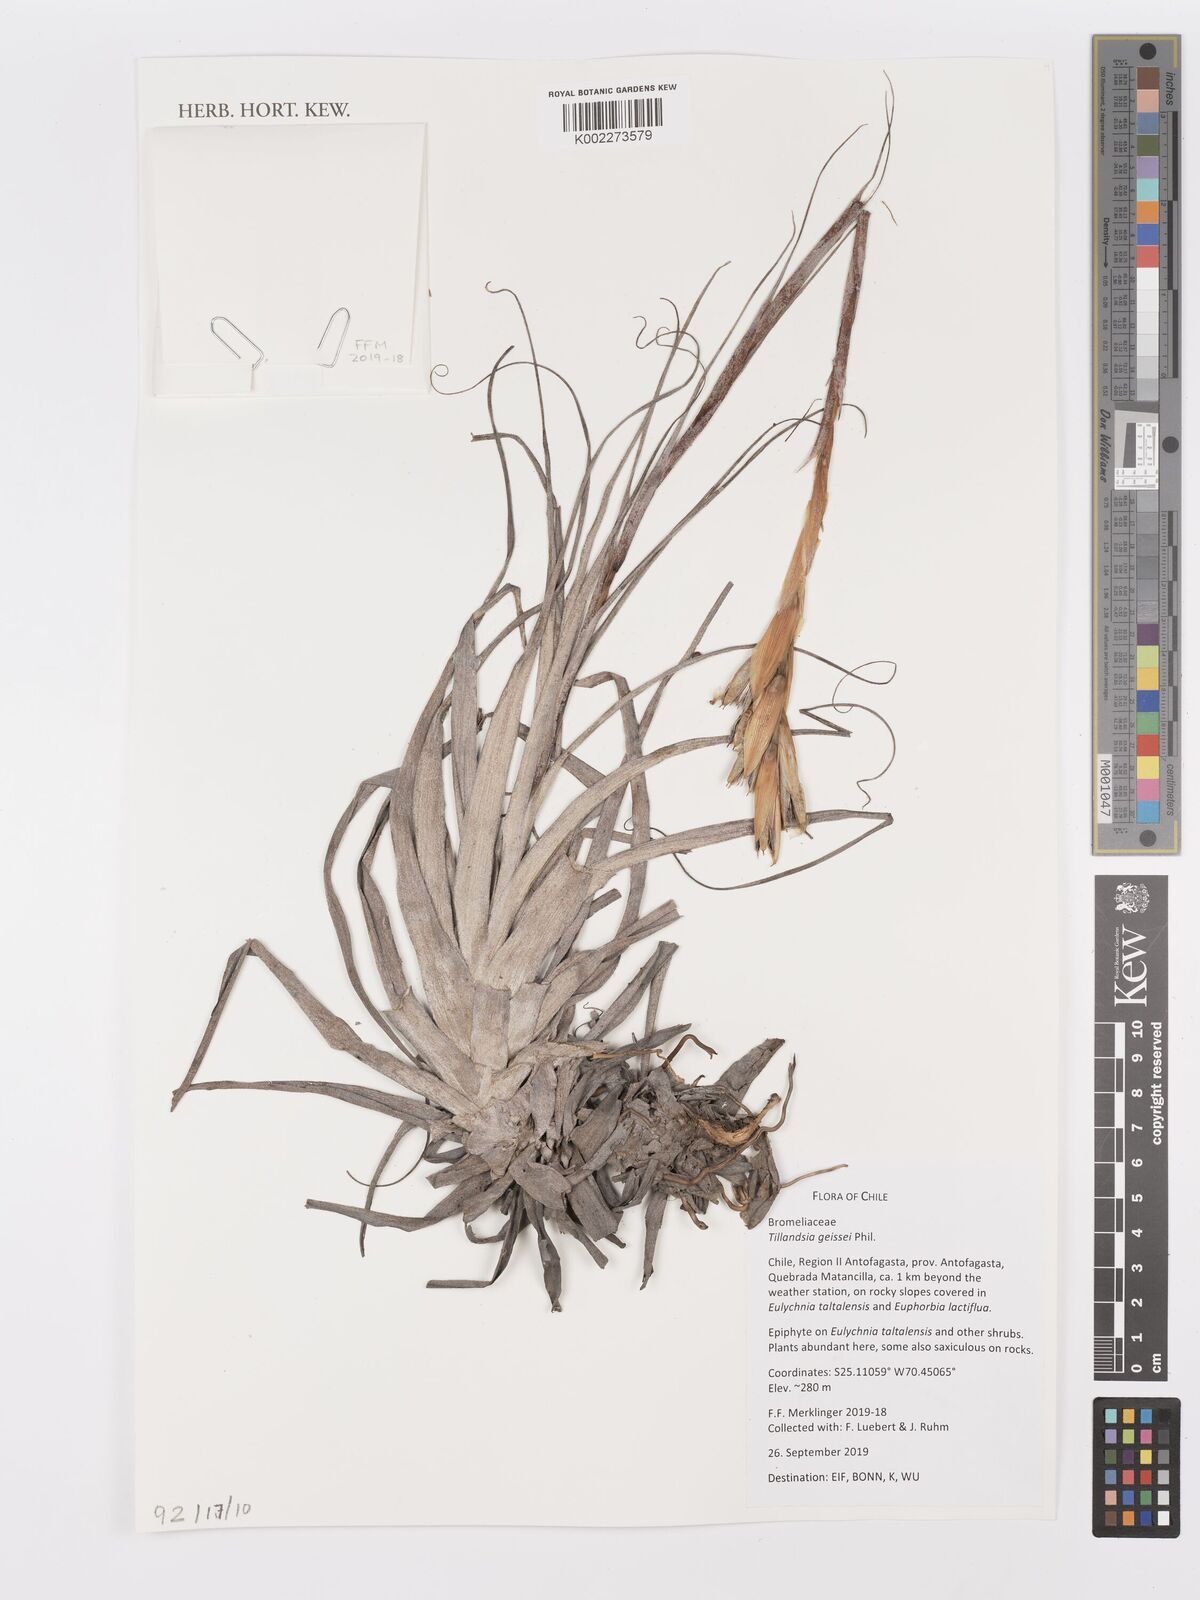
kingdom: Plantae
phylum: Tracheophyta
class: Liliopsida
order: Poales
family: Bromeliaceae
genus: Tillandsia
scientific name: Tillandsia gilliesii
